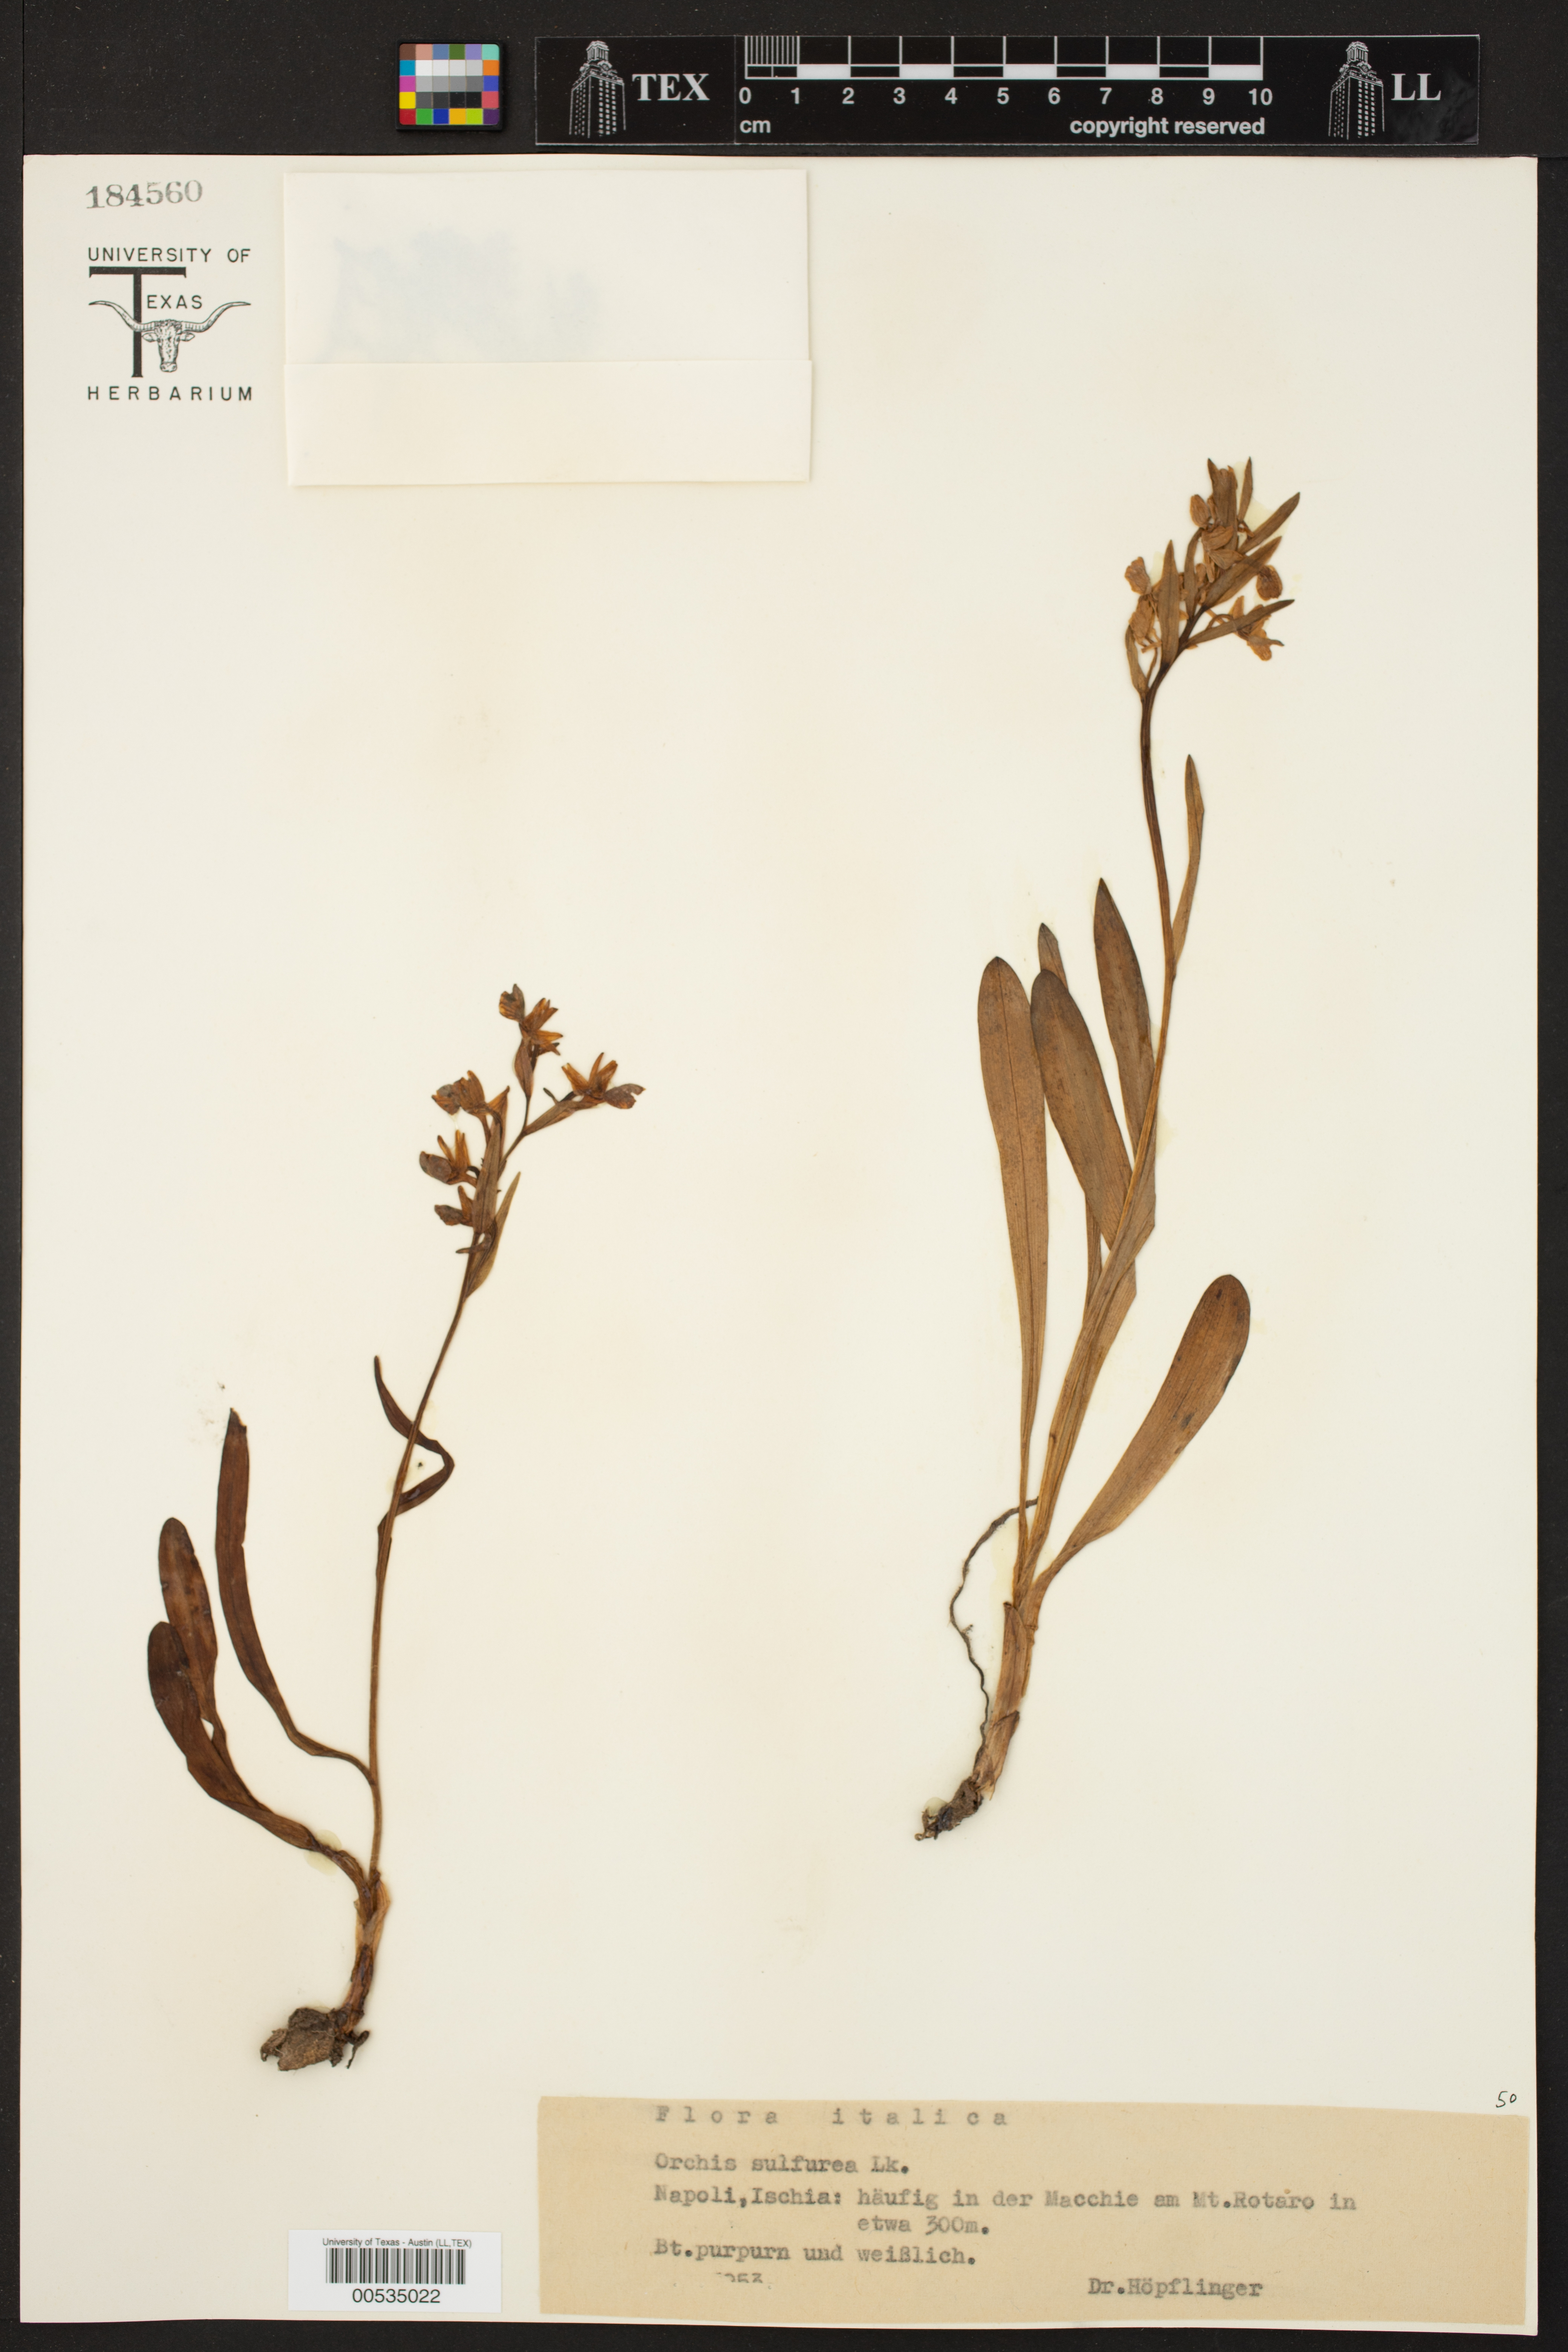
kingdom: Plantae
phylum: Tracheophyta
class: Liliopsida
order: Asparagales
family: Orchidaceae
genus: Orchis
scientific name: Orchis sulphurea
